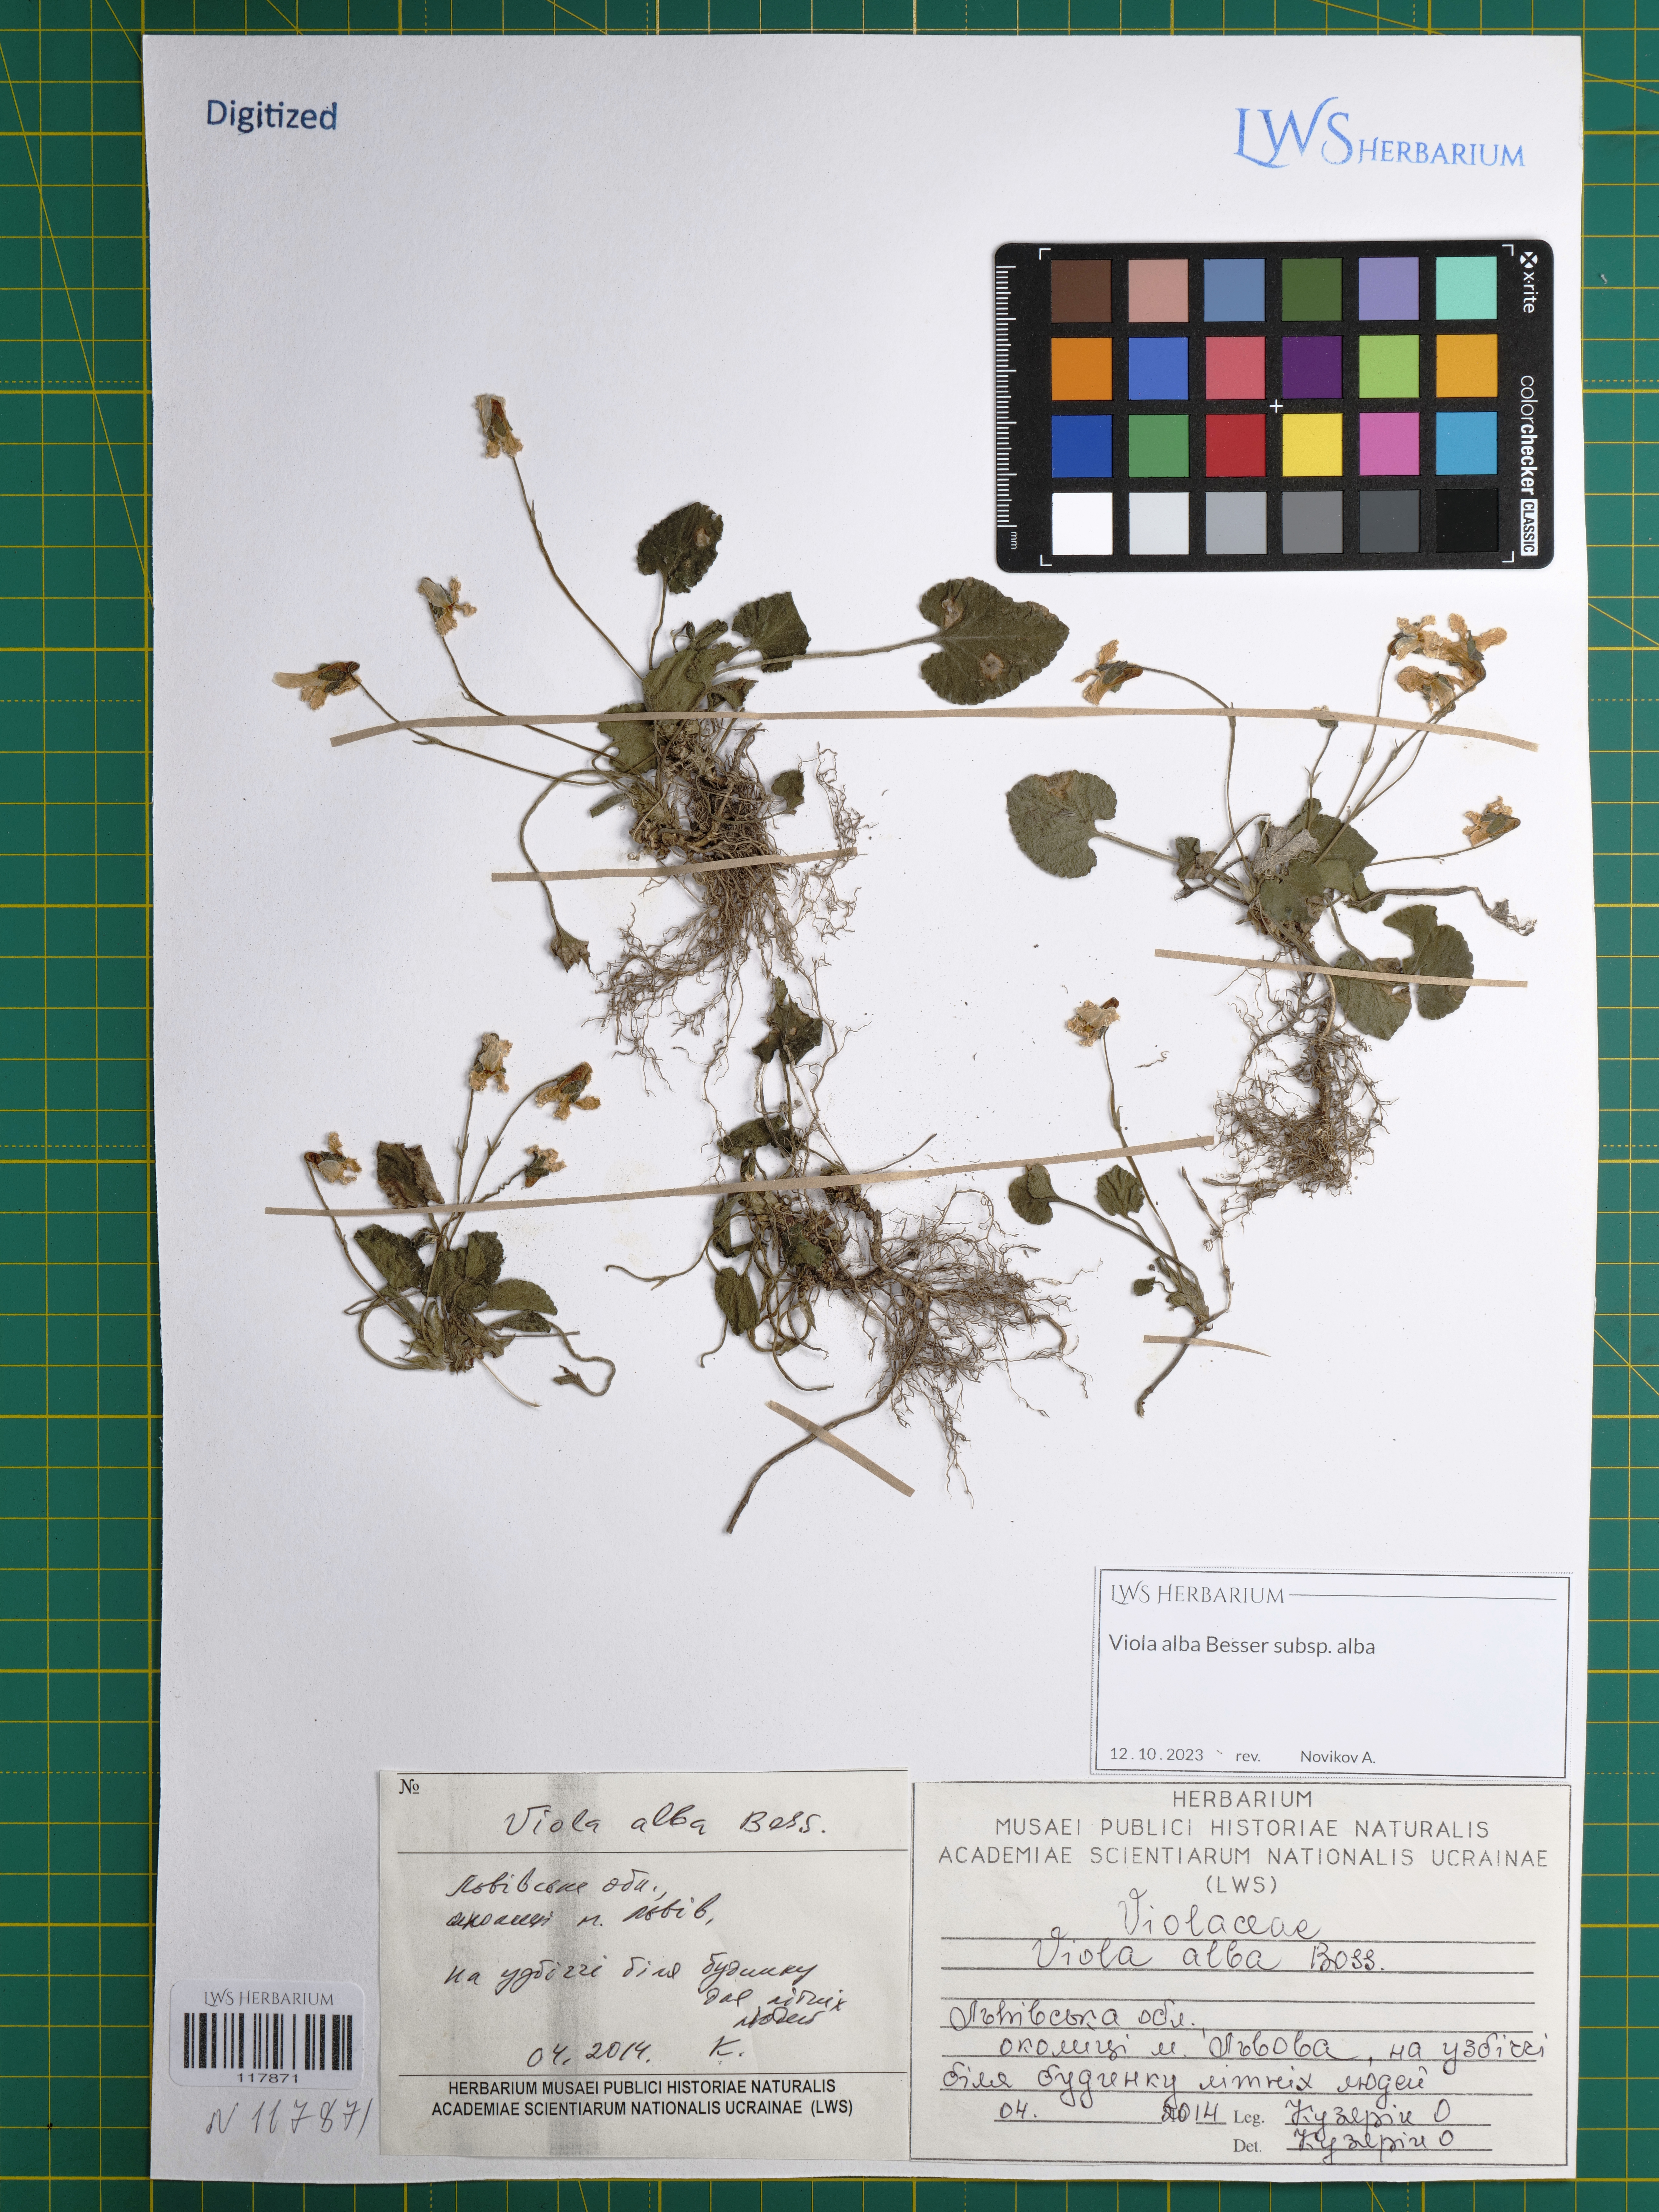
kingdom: Plantae
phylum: Tracheophyta
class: Magnoliopsida
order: Malpighiales
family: Violaceae
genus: Viola
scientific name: Viola alba
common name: White violet
